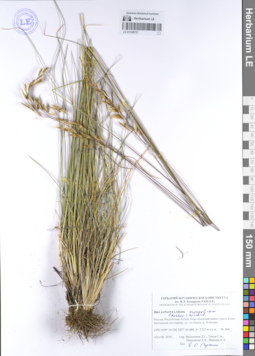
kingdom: Plantae
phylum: Tracheophyta
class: Liliopsida
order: Poales
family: Poaceae
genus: Helictotrichon
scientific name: Helictotrichon mongolicum
